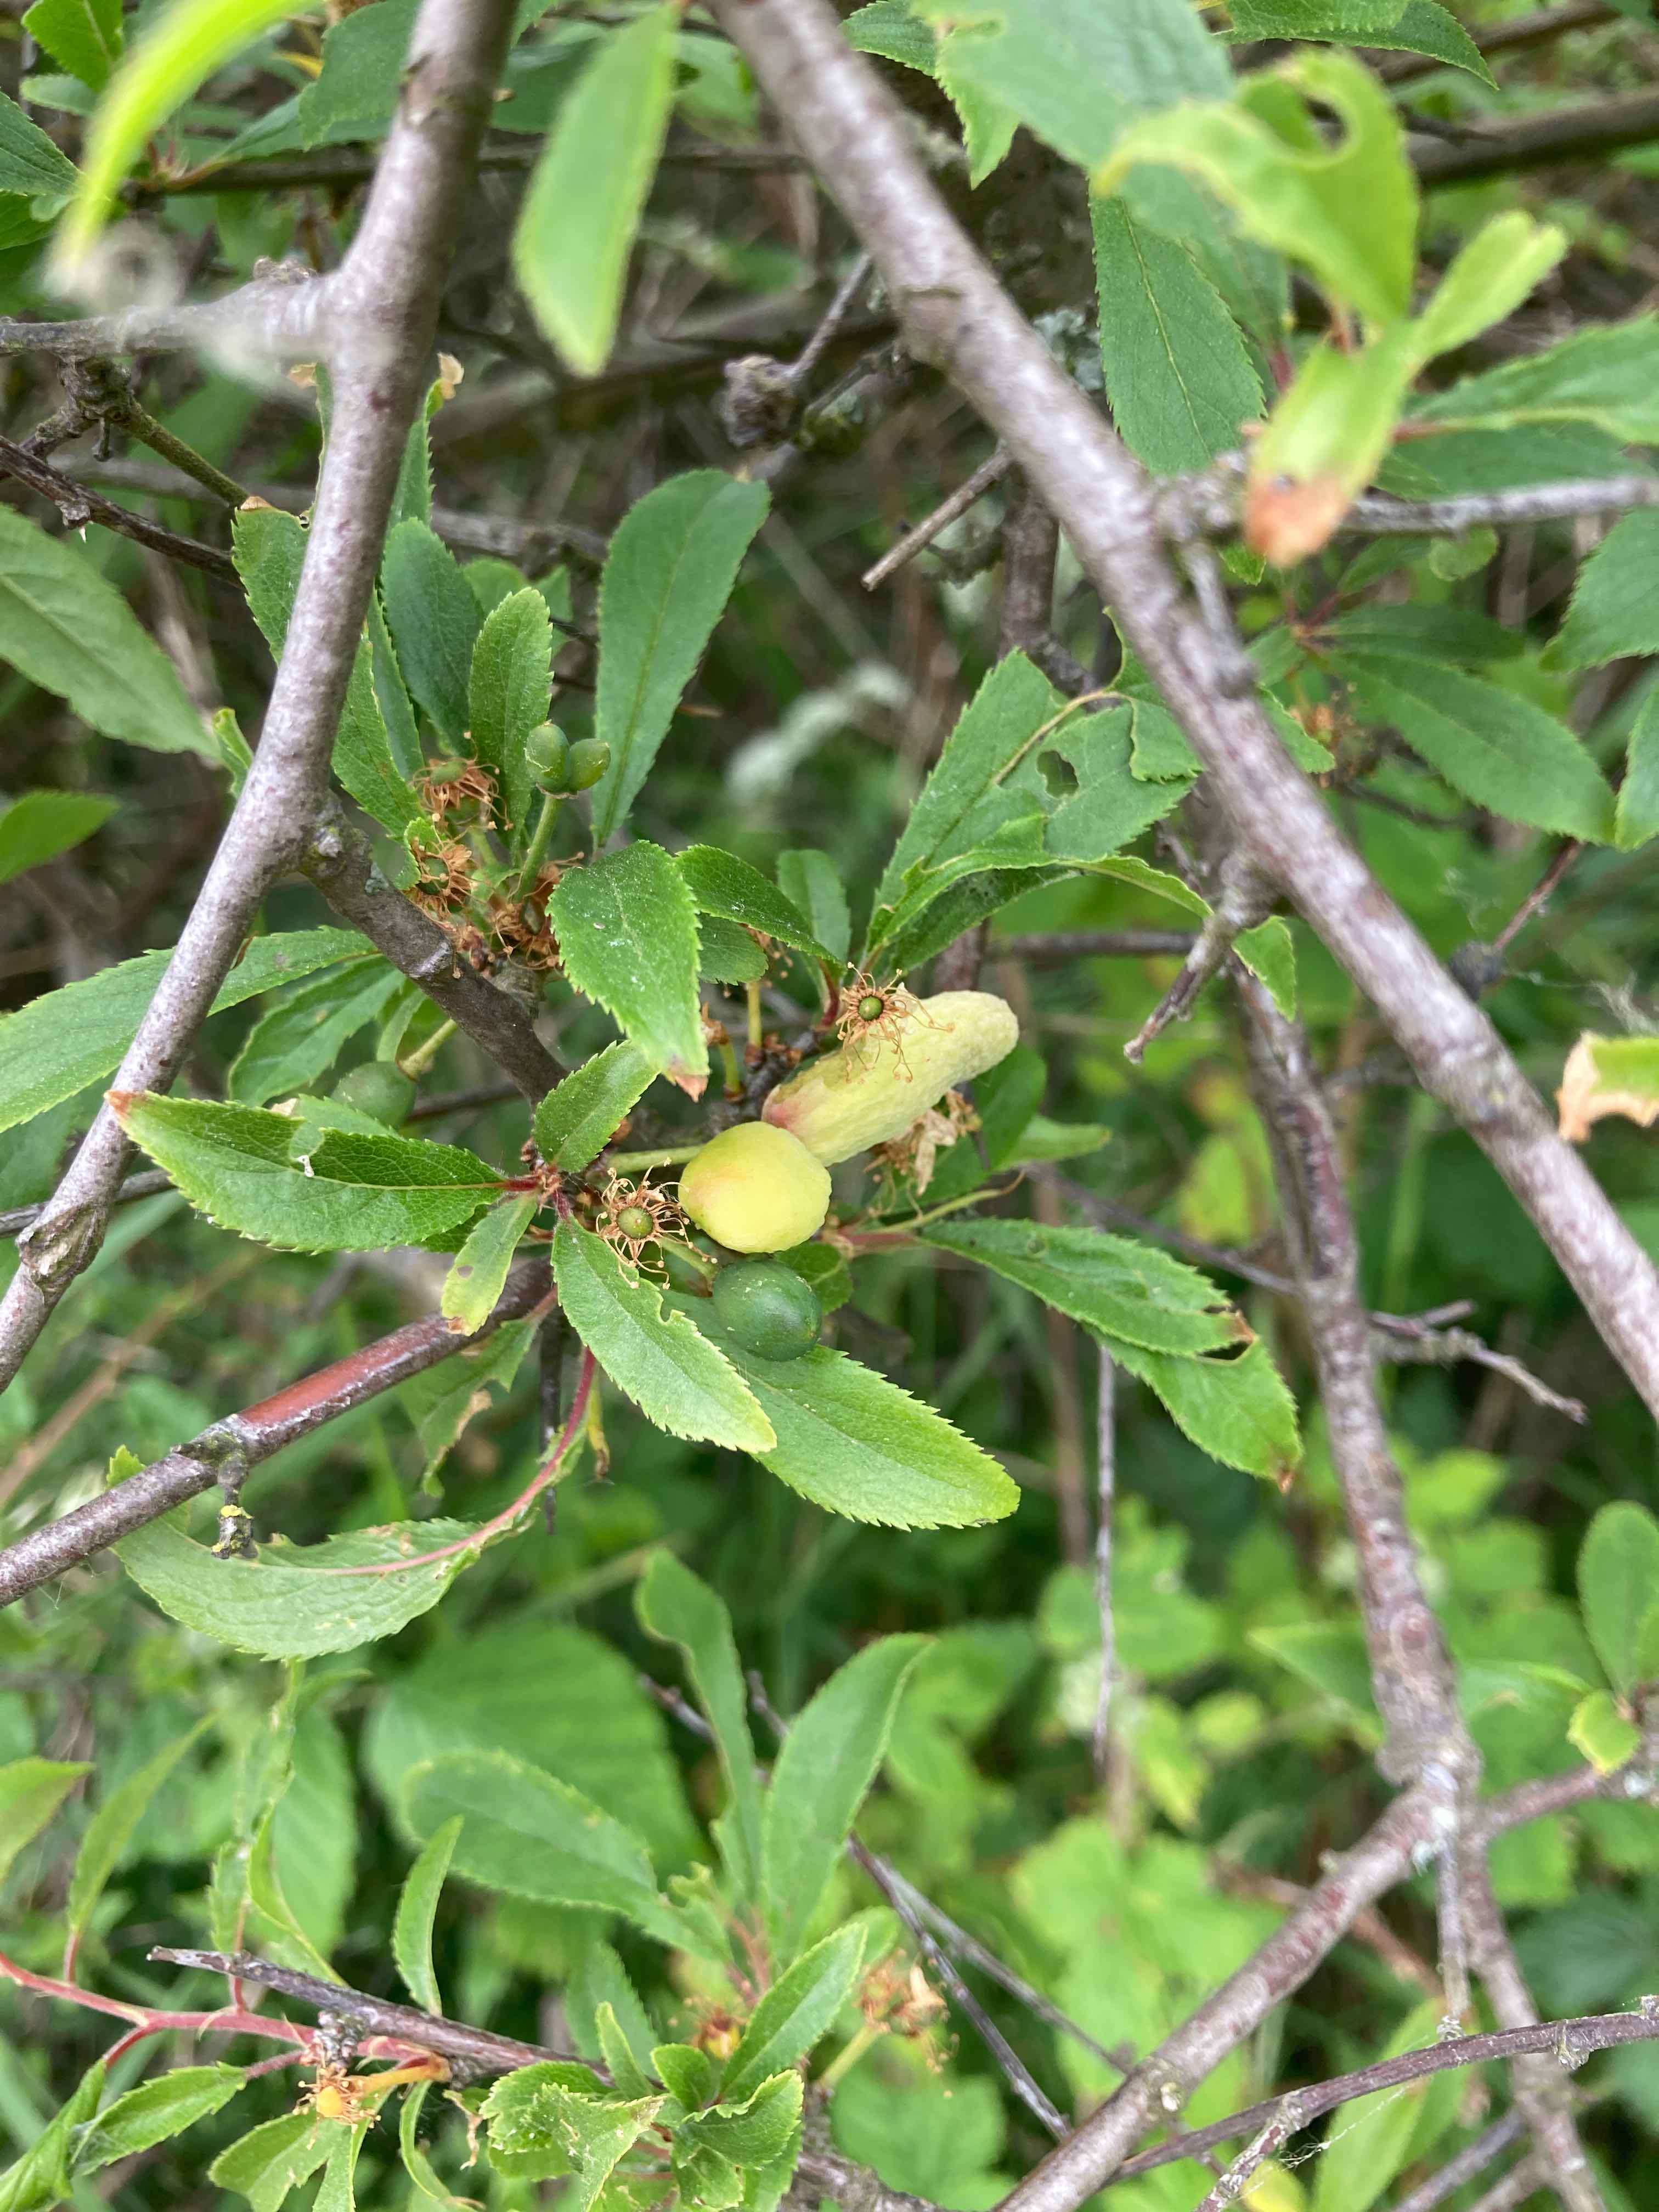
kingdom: Fungi
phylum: Ascomycota
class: Taphrinomycetes
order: Taphrinales
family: Taphrinaceae
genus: Taphrina
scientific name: Taphrina pruni
